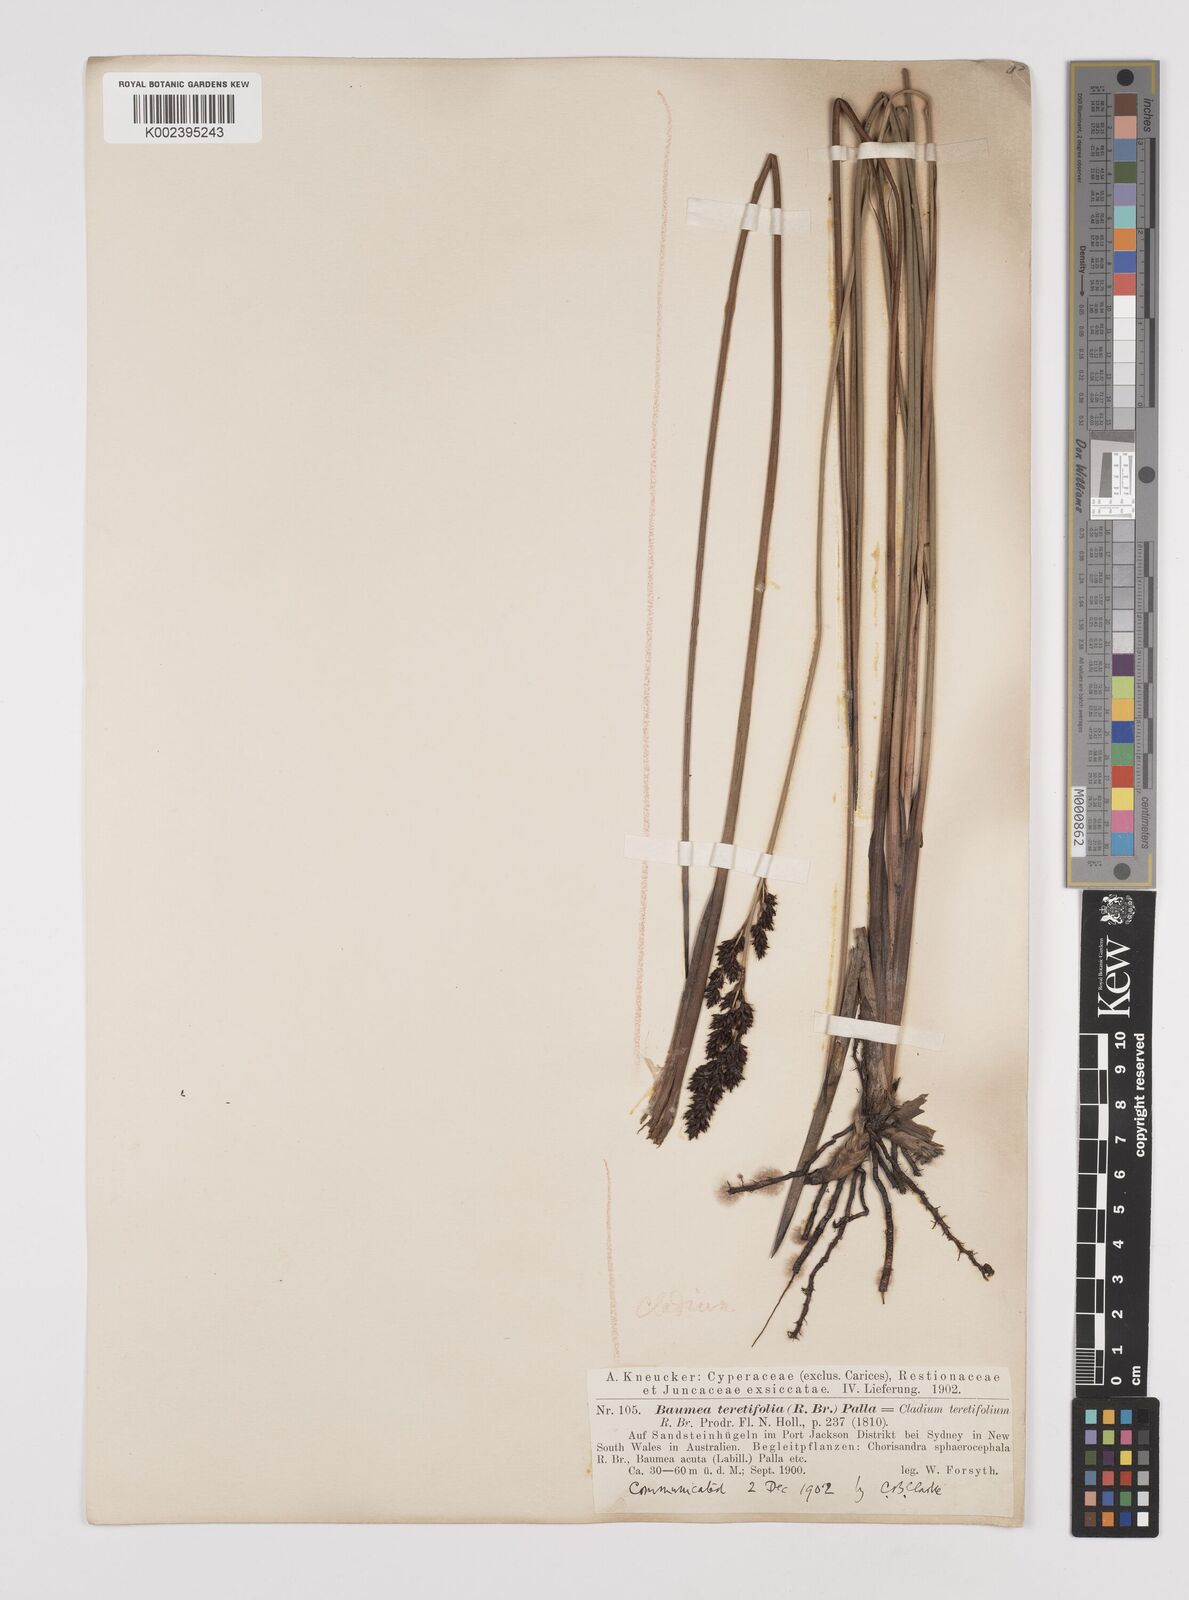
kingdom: Plantae
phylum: Tracheophyta
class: Liliopsida
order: Poales
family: Cyperaceae
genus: Machaerina
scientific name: Machaerina teretifolia
